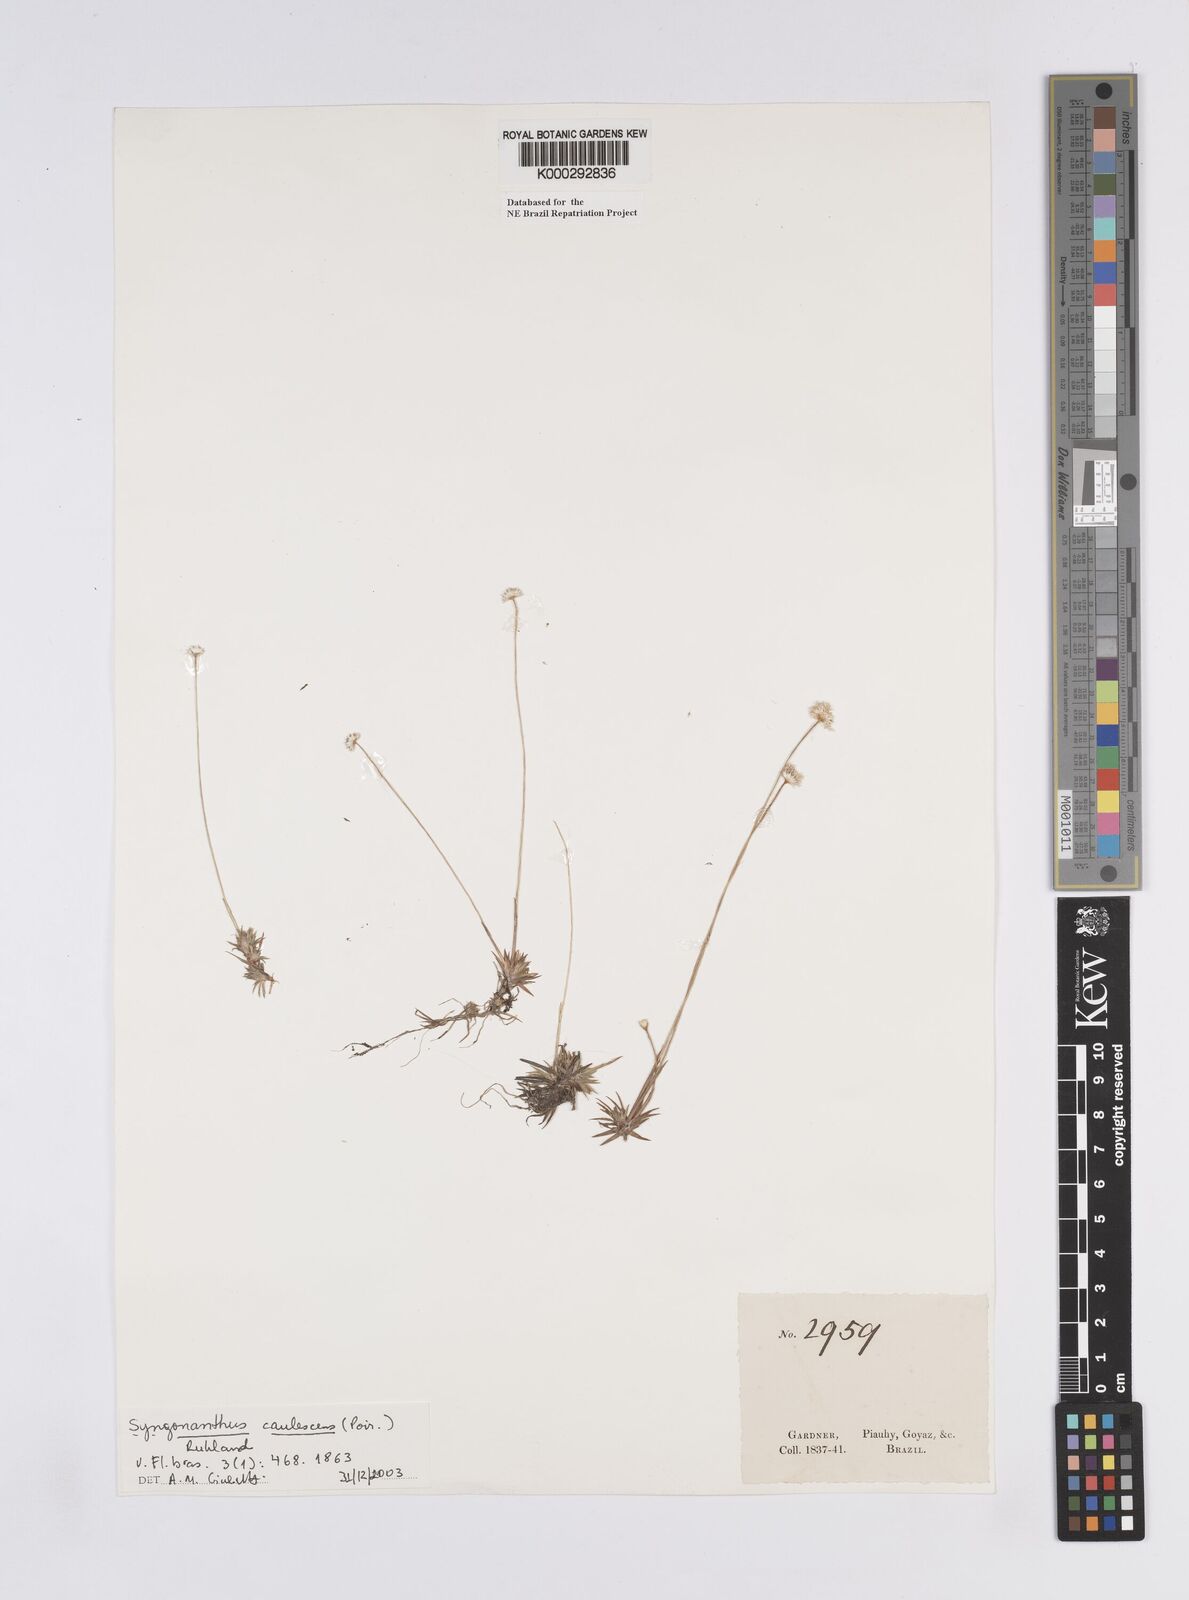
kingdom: Plantae
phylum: Tracheophyta
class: Liliopsida
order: Poales
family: Eriocaulaceae
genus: Syngonanthus
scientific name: Syngonanthus caulescens
